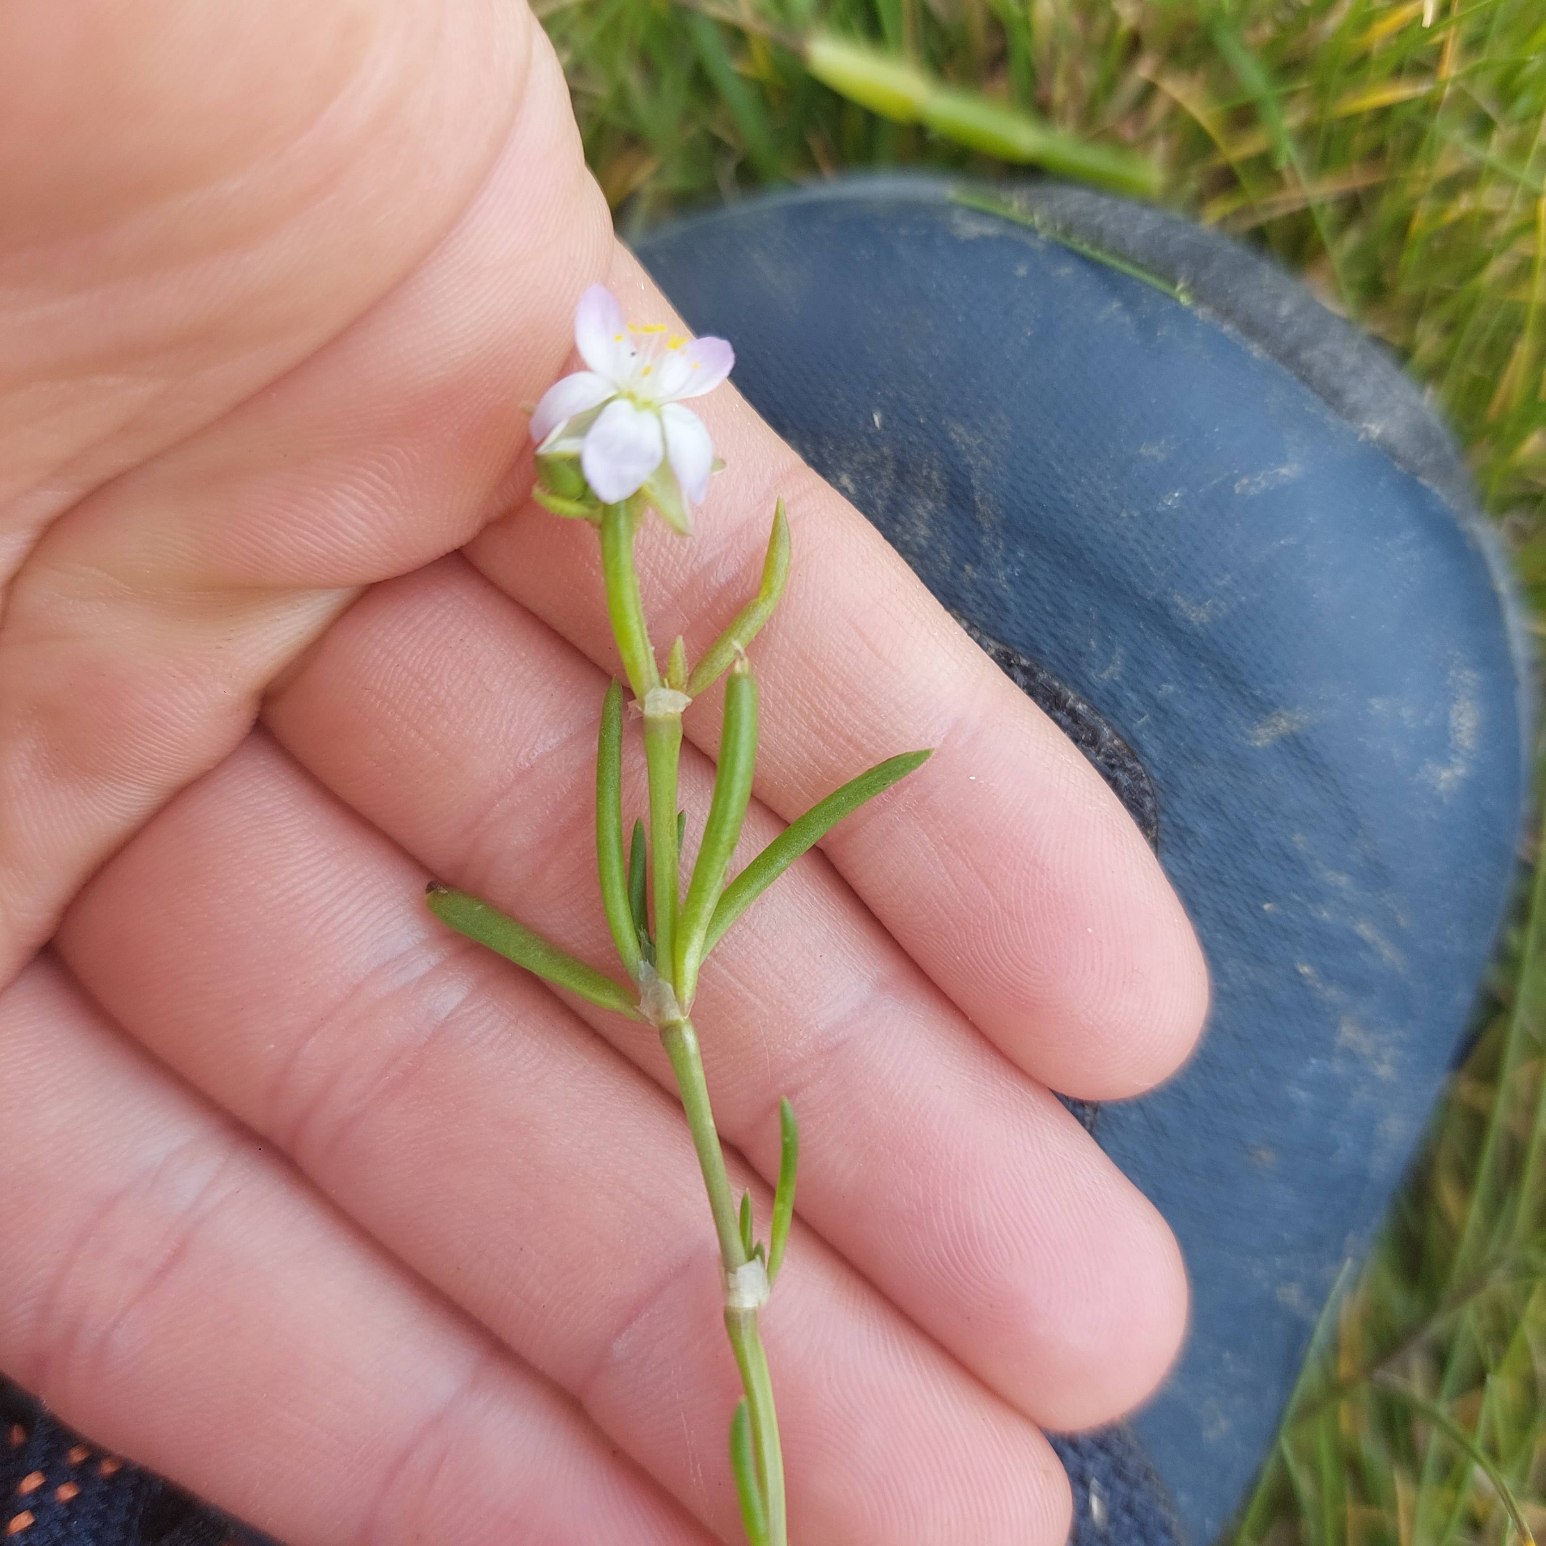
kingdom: Plantae
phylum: Tracheophyta
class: Magnoliopsida
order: Caryophyllales
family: Caryophyllaceae
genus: Spergularia
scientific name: Spergularia
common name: Hindeknæslægten
